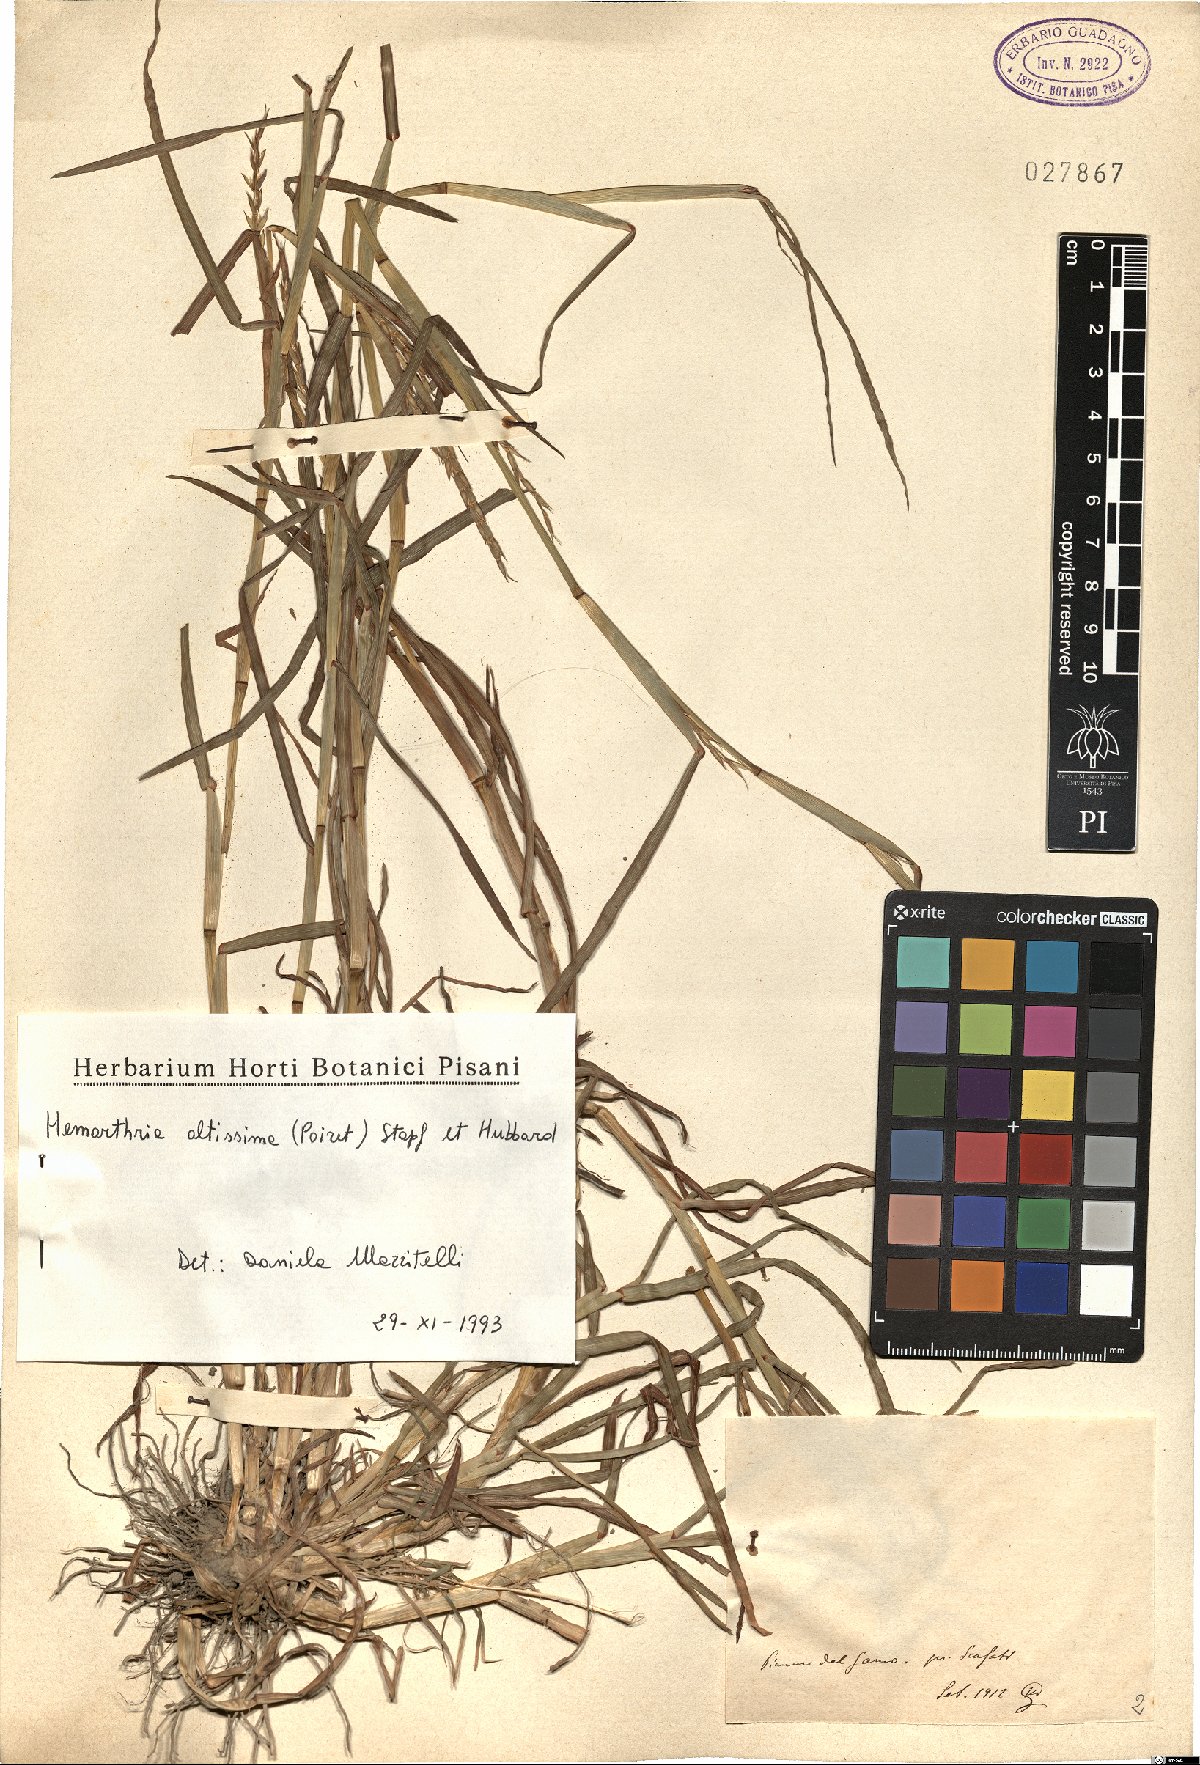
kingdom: Plantae
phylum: Tracheophyta
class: Liliopsida
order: Poales
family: Poaceae
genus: Hemarthria
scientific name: Hemarthria altissima
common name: African jointgrass
